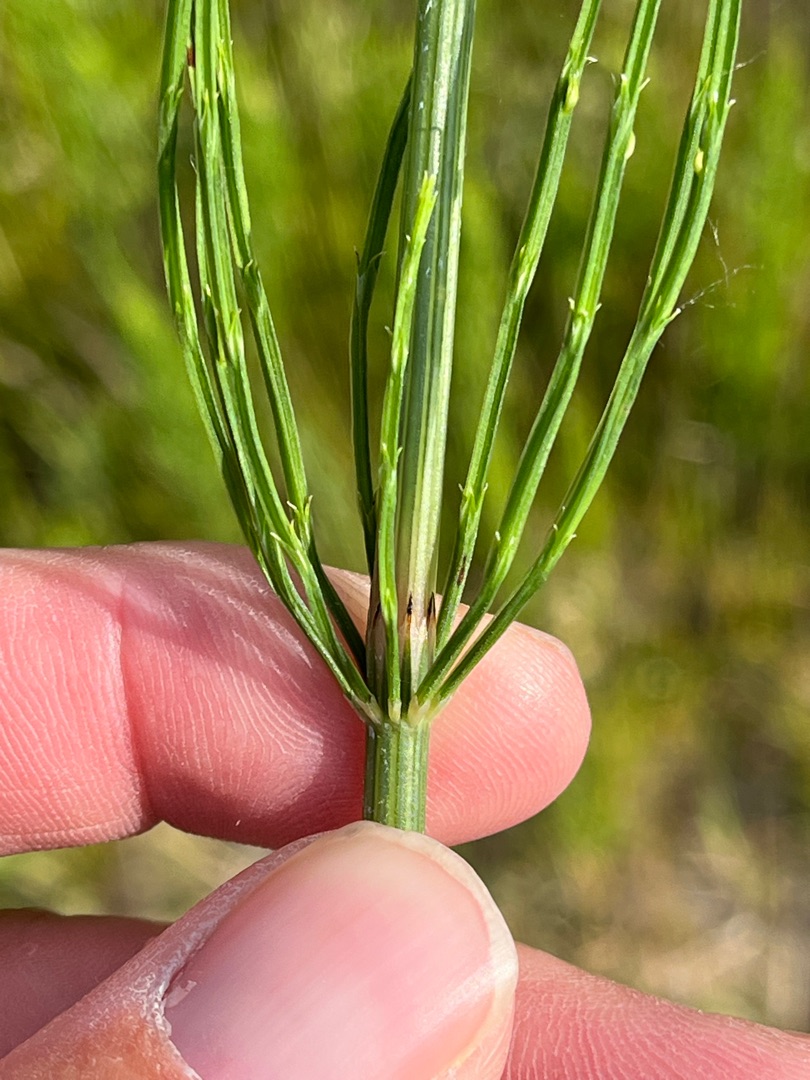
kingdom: Plantae
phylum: Tracheophyta
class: Polypodiopsida
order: Equisetales
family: Equisetaceae
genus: Equisetum
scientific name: Equisetum arvense
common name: Ager-padderok
